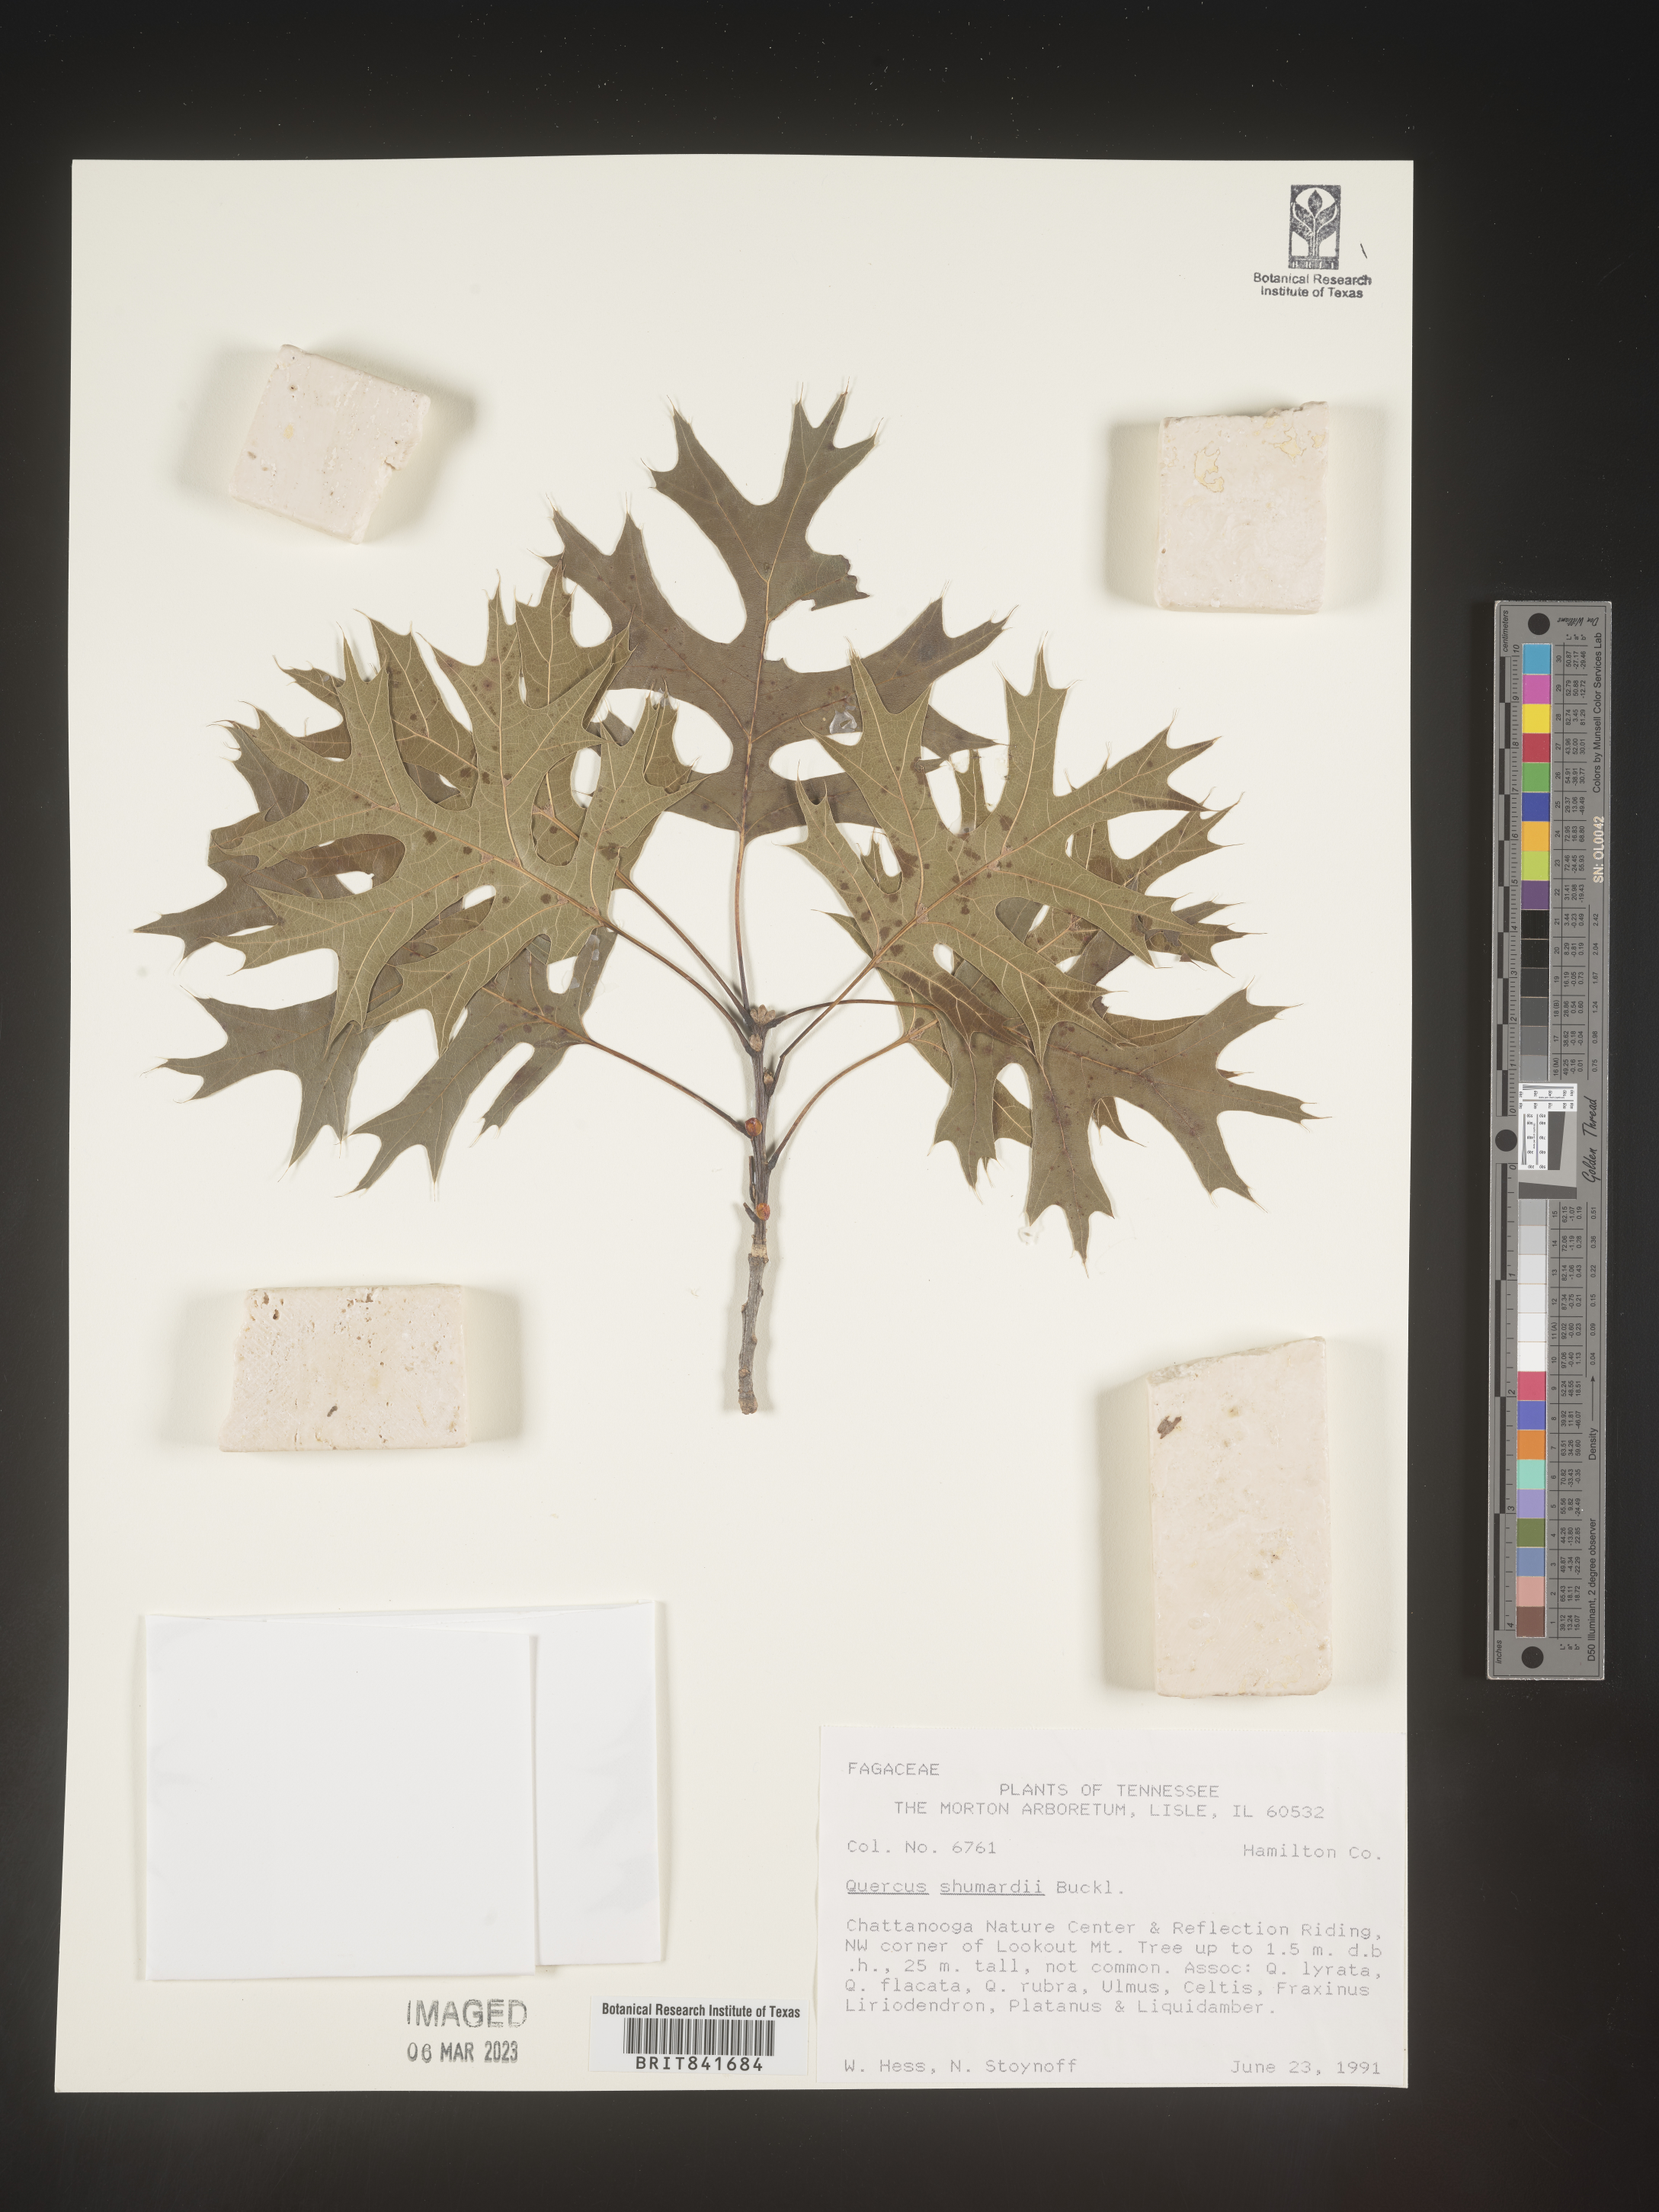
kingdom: Plantae
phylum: Tracheophyta
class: Magnoliopsida
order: Fagales
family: Fagaceae
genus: Quercus
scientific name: Quercus shumardii
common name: Shumard oak
